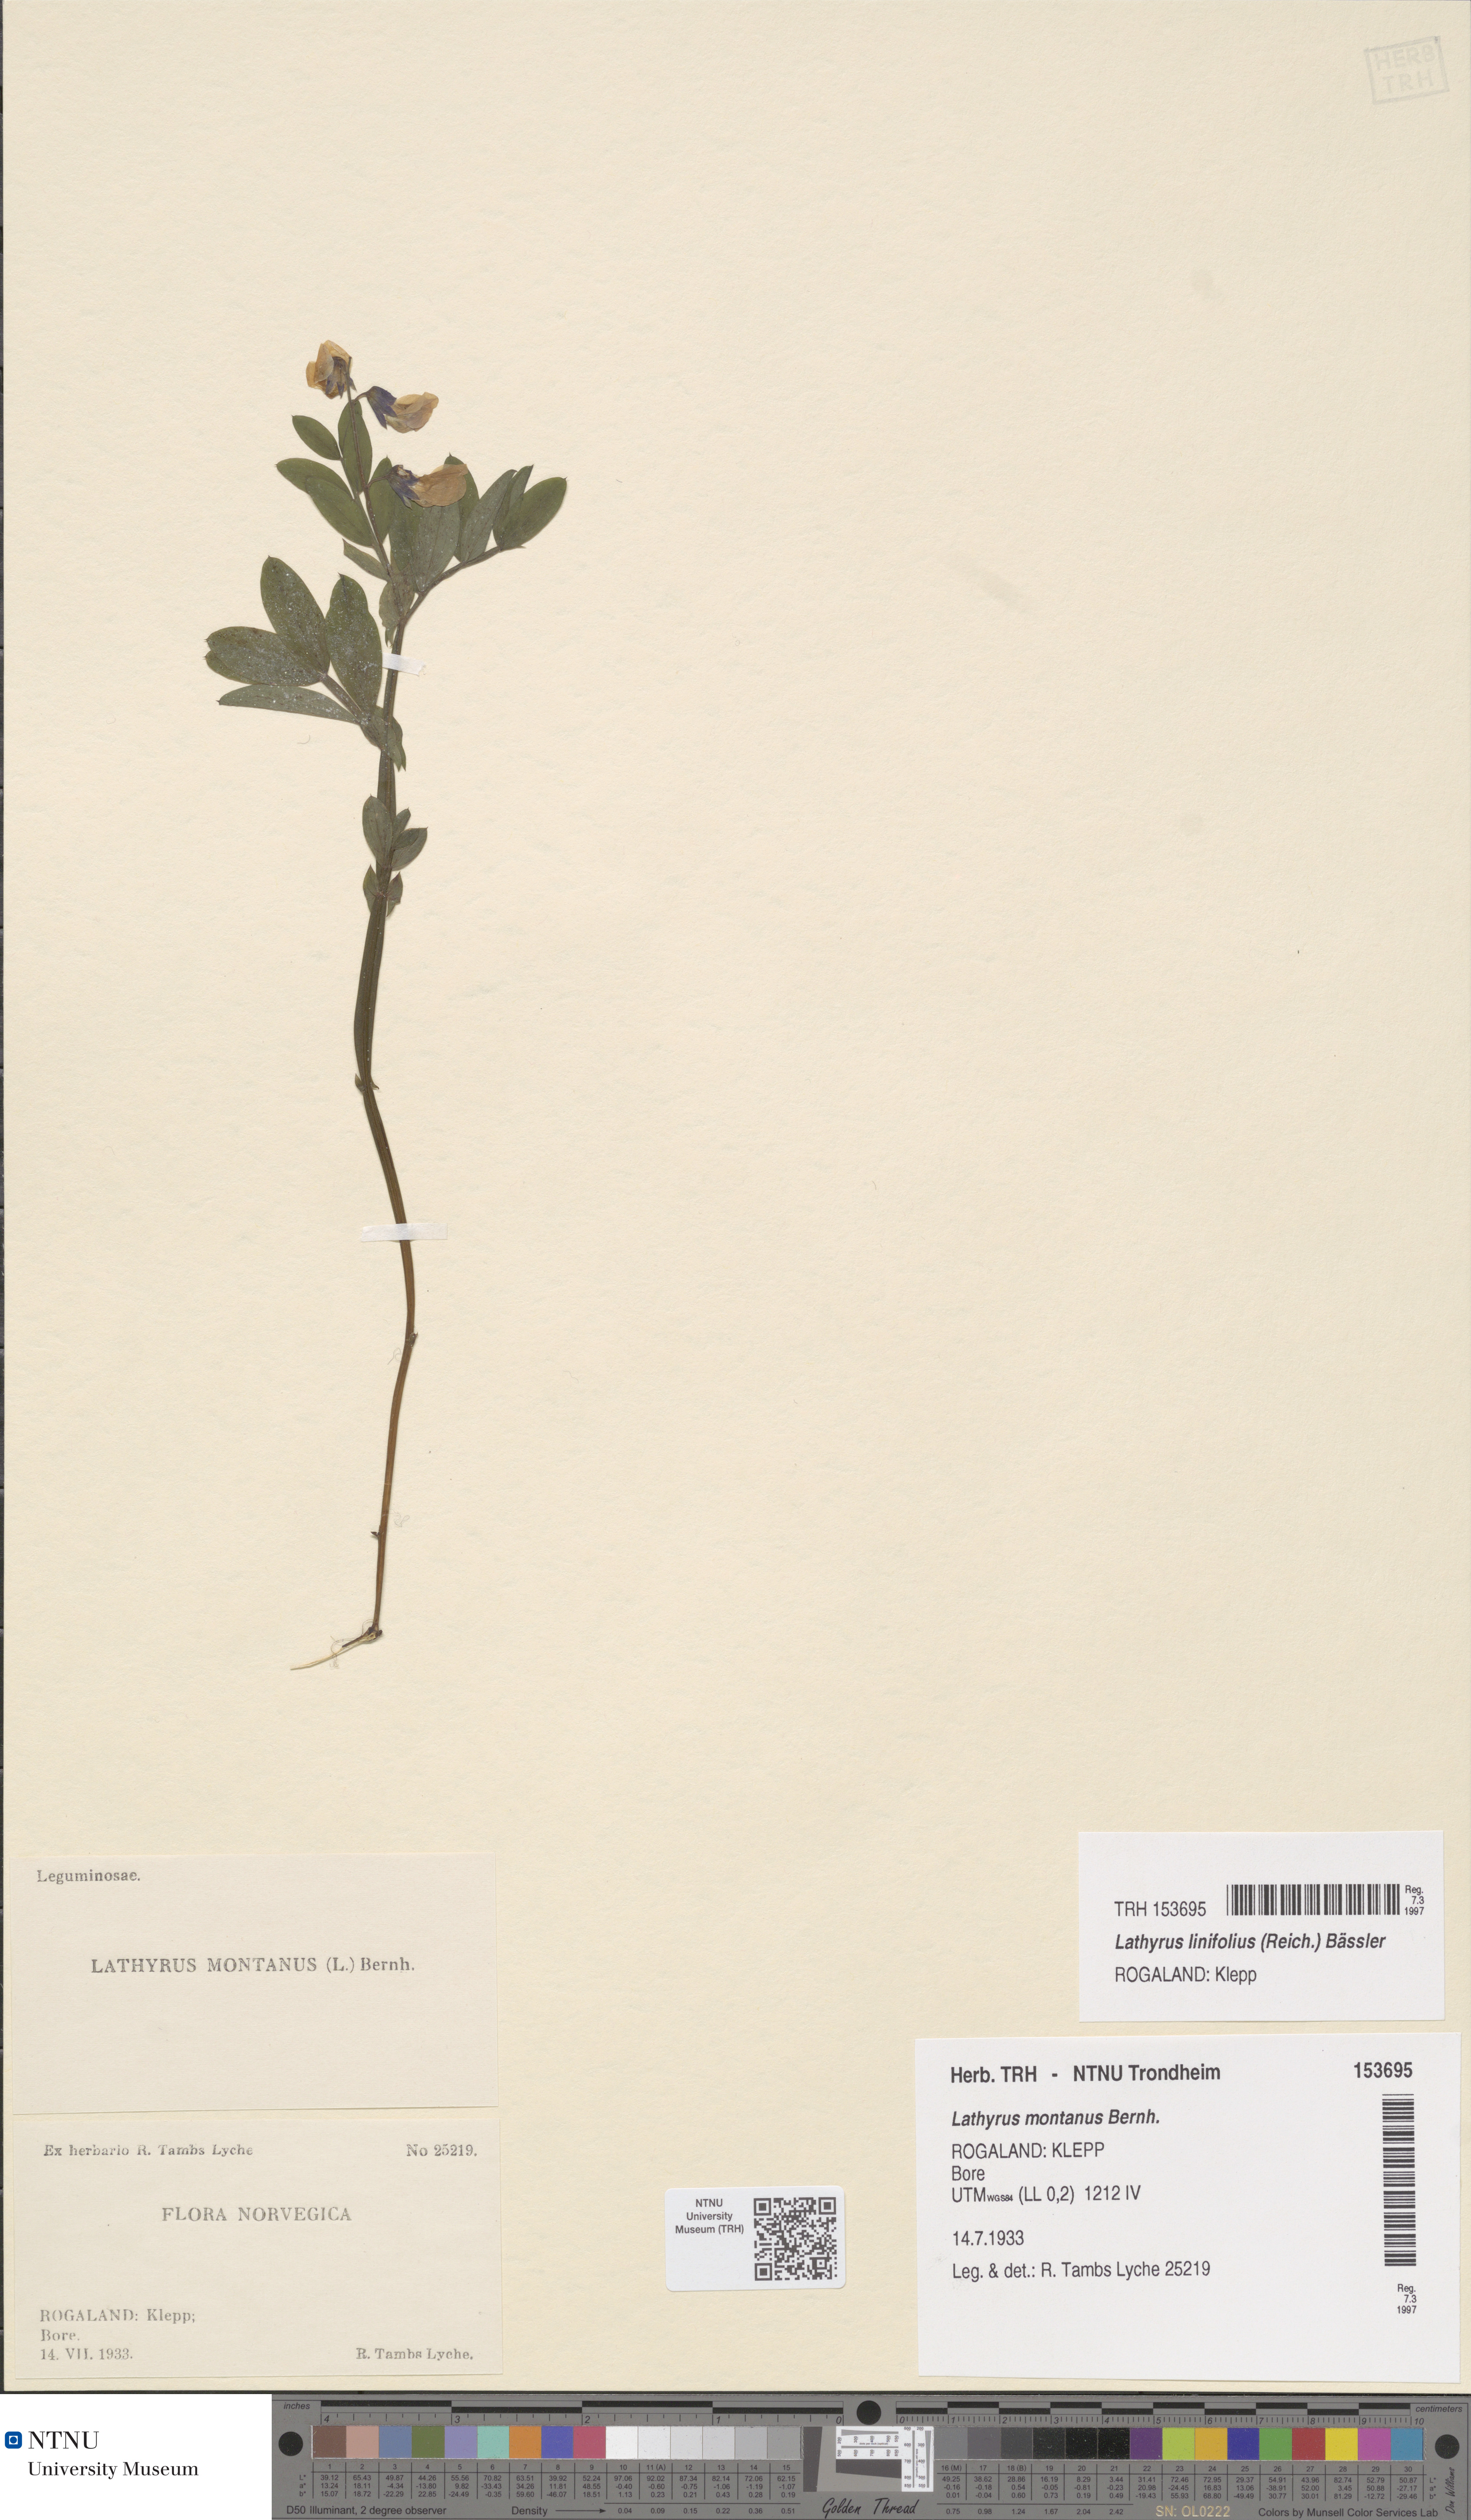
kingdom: Plantae
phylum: Tracheophyta
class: Magnoliopsida
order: Fabales
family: Fabaceae
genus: Lathyrus
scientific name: Lathyrus linifolius
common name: Bitter-vetch
